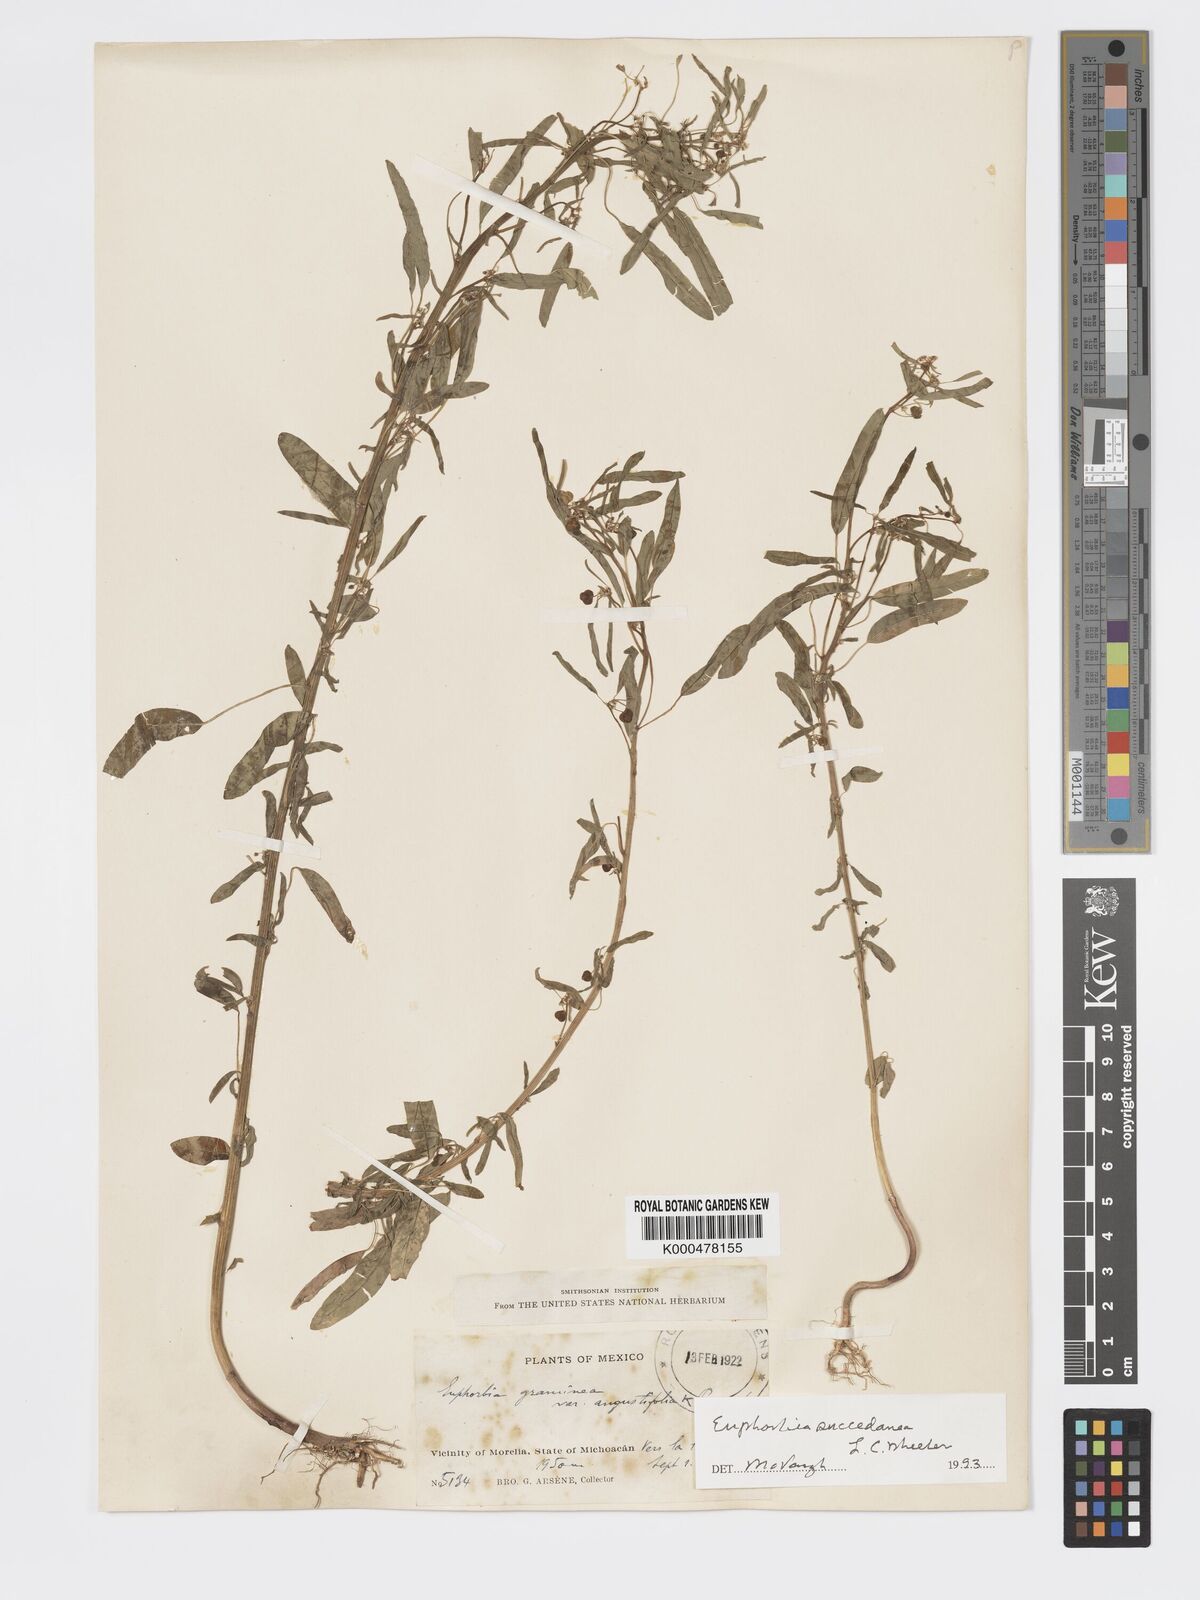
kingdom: Plantae
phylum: Tracheophyta
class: Magnoliopsida
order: Malpighiales
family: Euphorbiaceae
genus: Euphorbia
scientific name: Euphorbia succedanea
